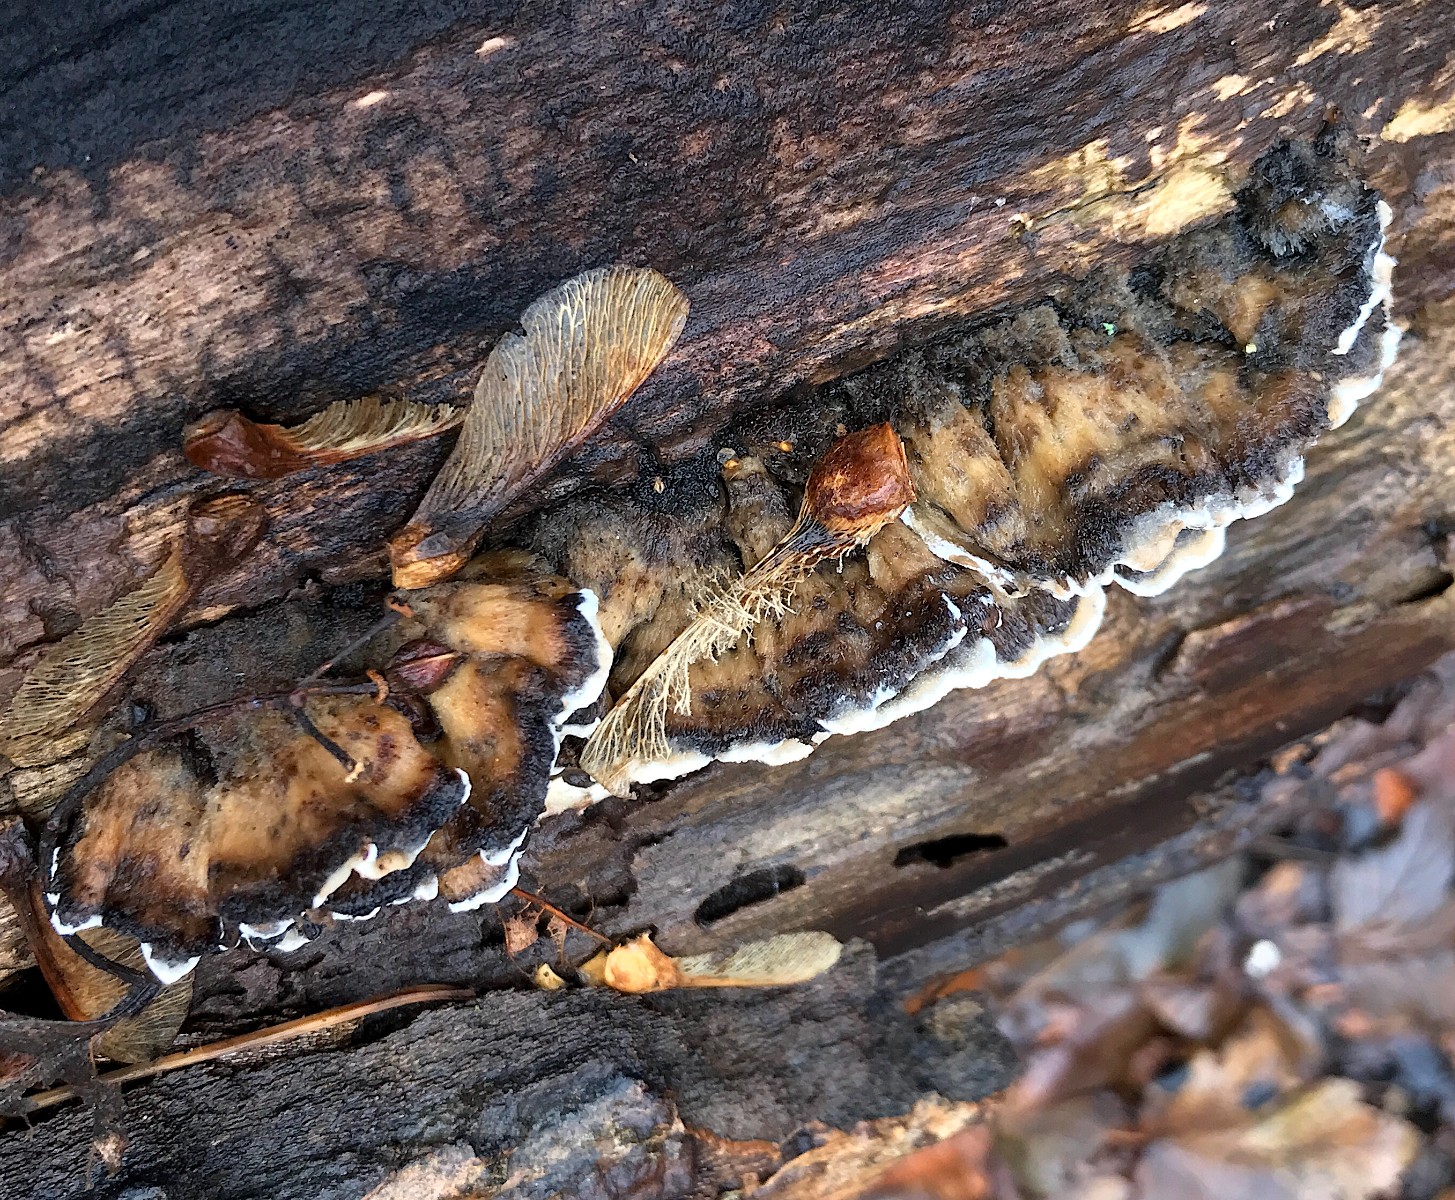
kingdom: Fungi
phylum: Basidiomycota
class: Agaricomycetes
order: Polyporales
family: Phanerochaetaceae
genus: Bjerkandera
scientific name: Bjerkandera adusta
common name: sveden sodporesvamp
